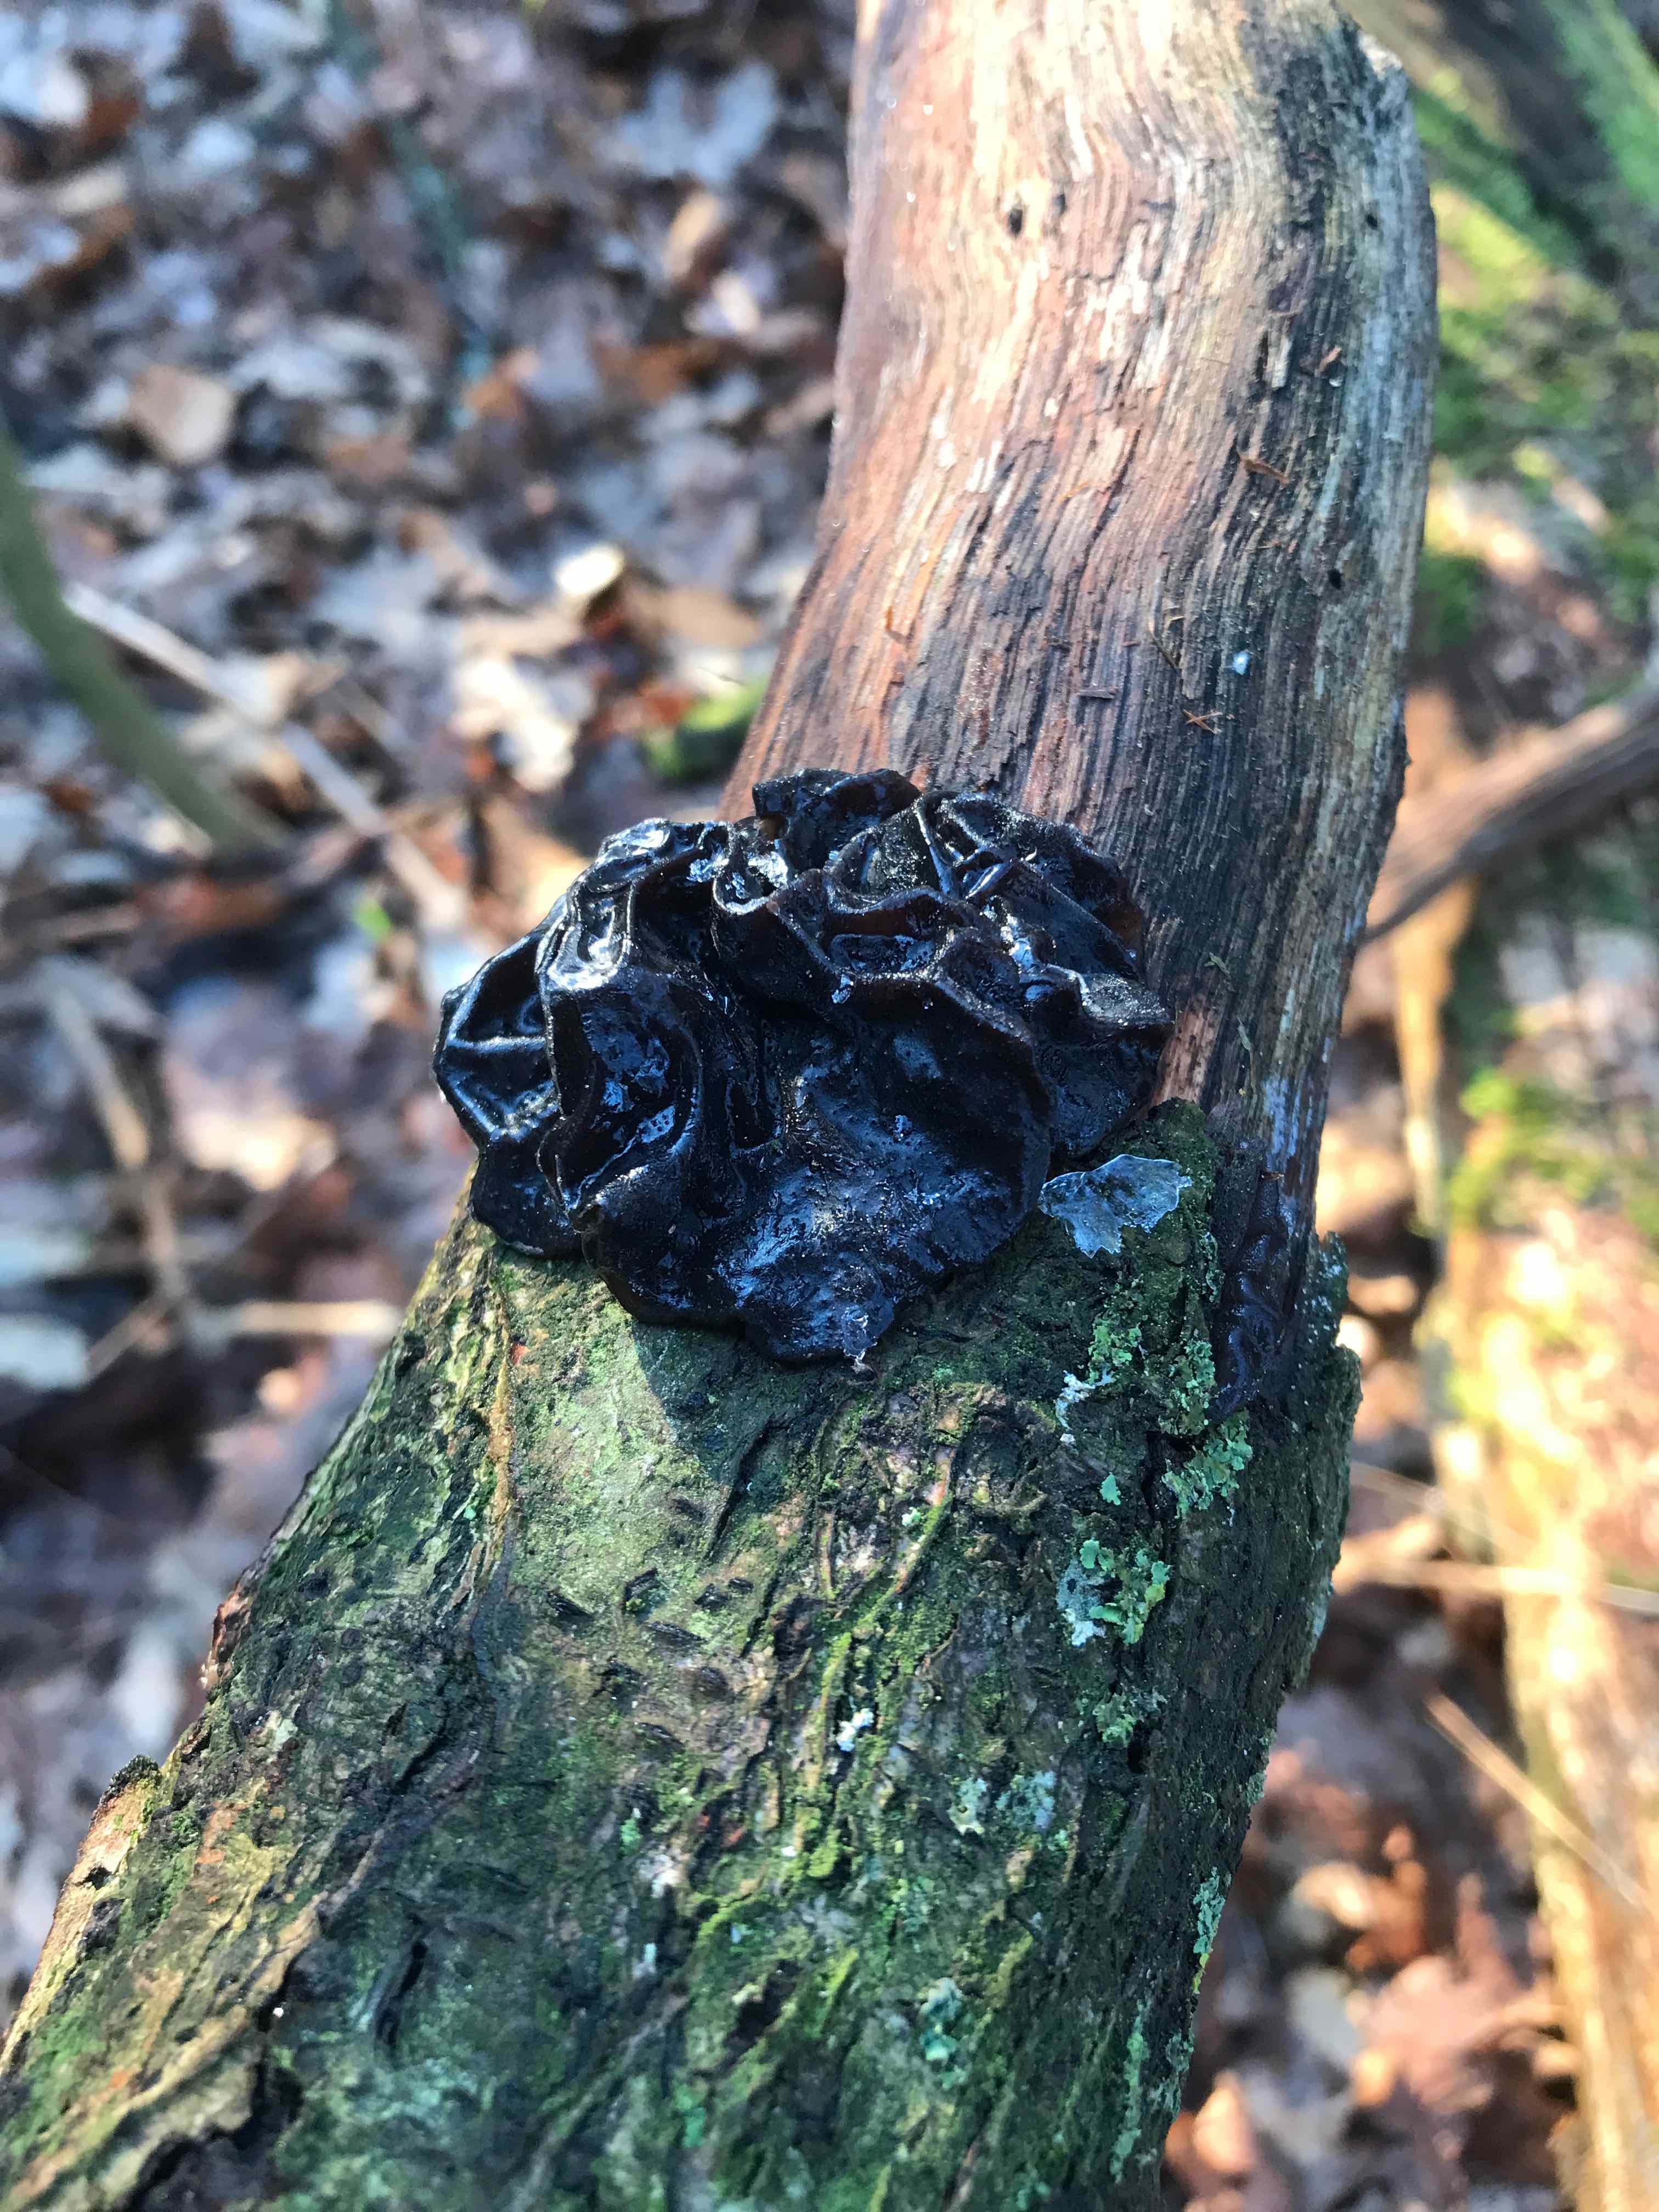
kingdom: Fungi
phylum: Basidiomycota
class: Agaricomycetes
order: Auriculariales
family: Auriculariaceae
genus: Exidia
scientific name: Exidia glandulosa
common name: ege-bævretop
